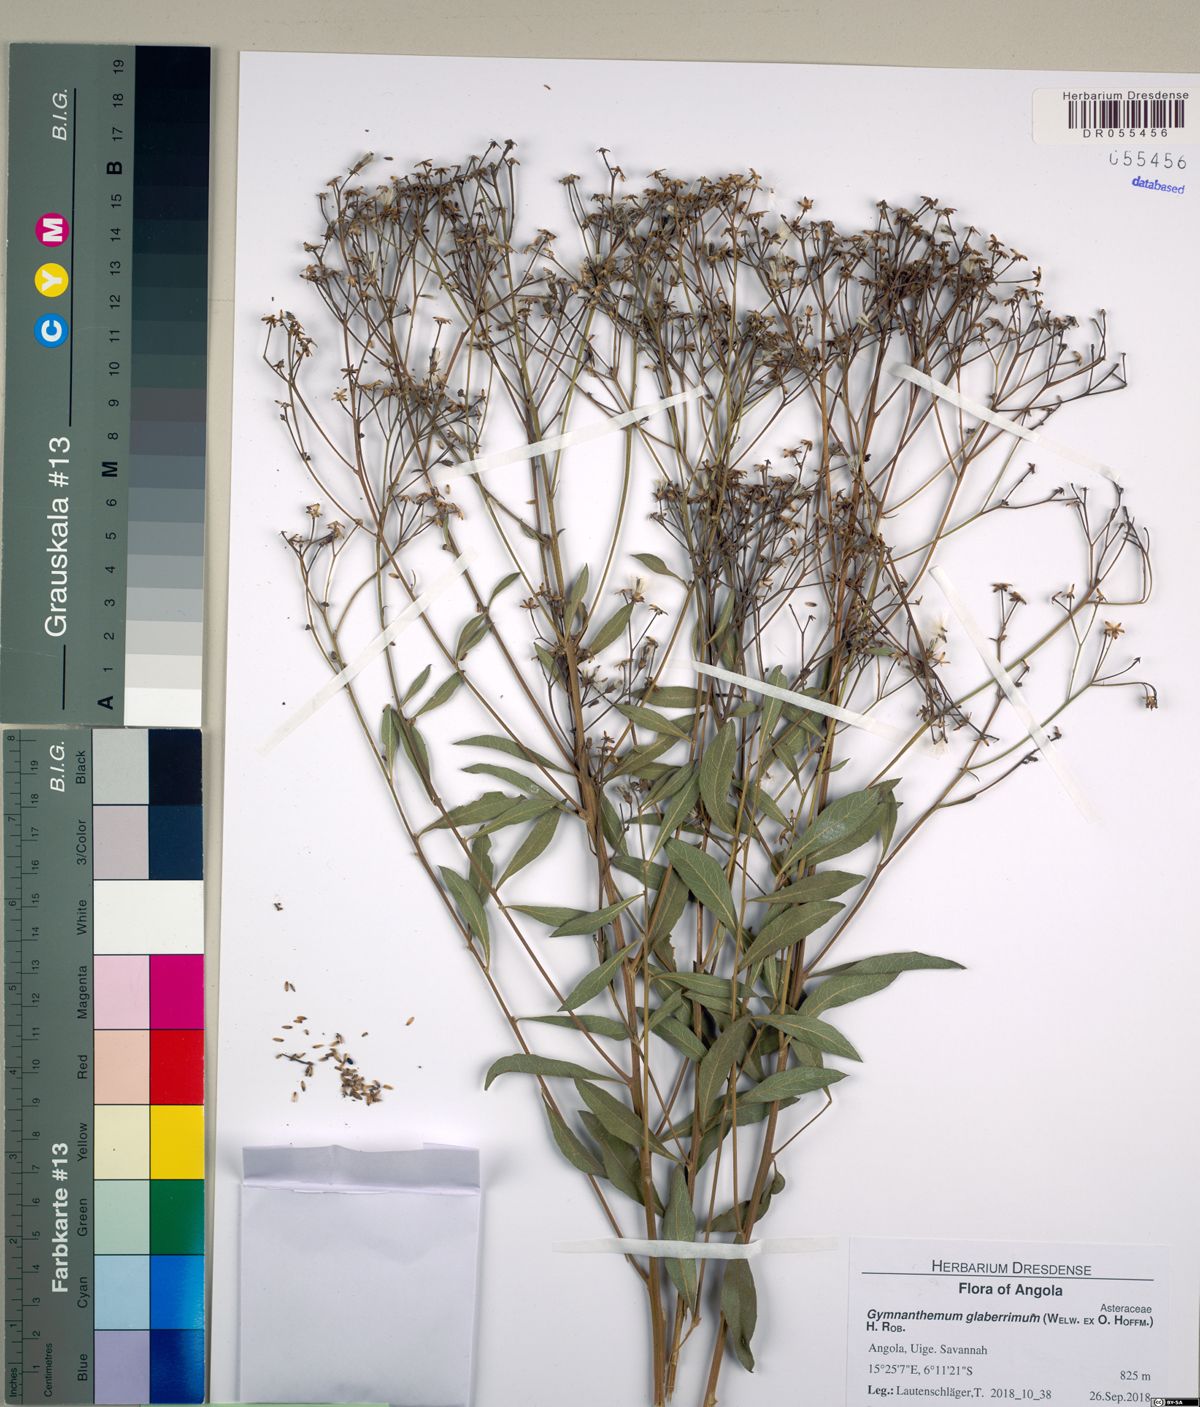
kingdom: Plantae
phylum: Tracheophyta
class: Magnoliopsida
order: Asterales
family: Asteraceae
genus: Gymnanthemum
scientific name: Gymnanthemum glaberrimum
